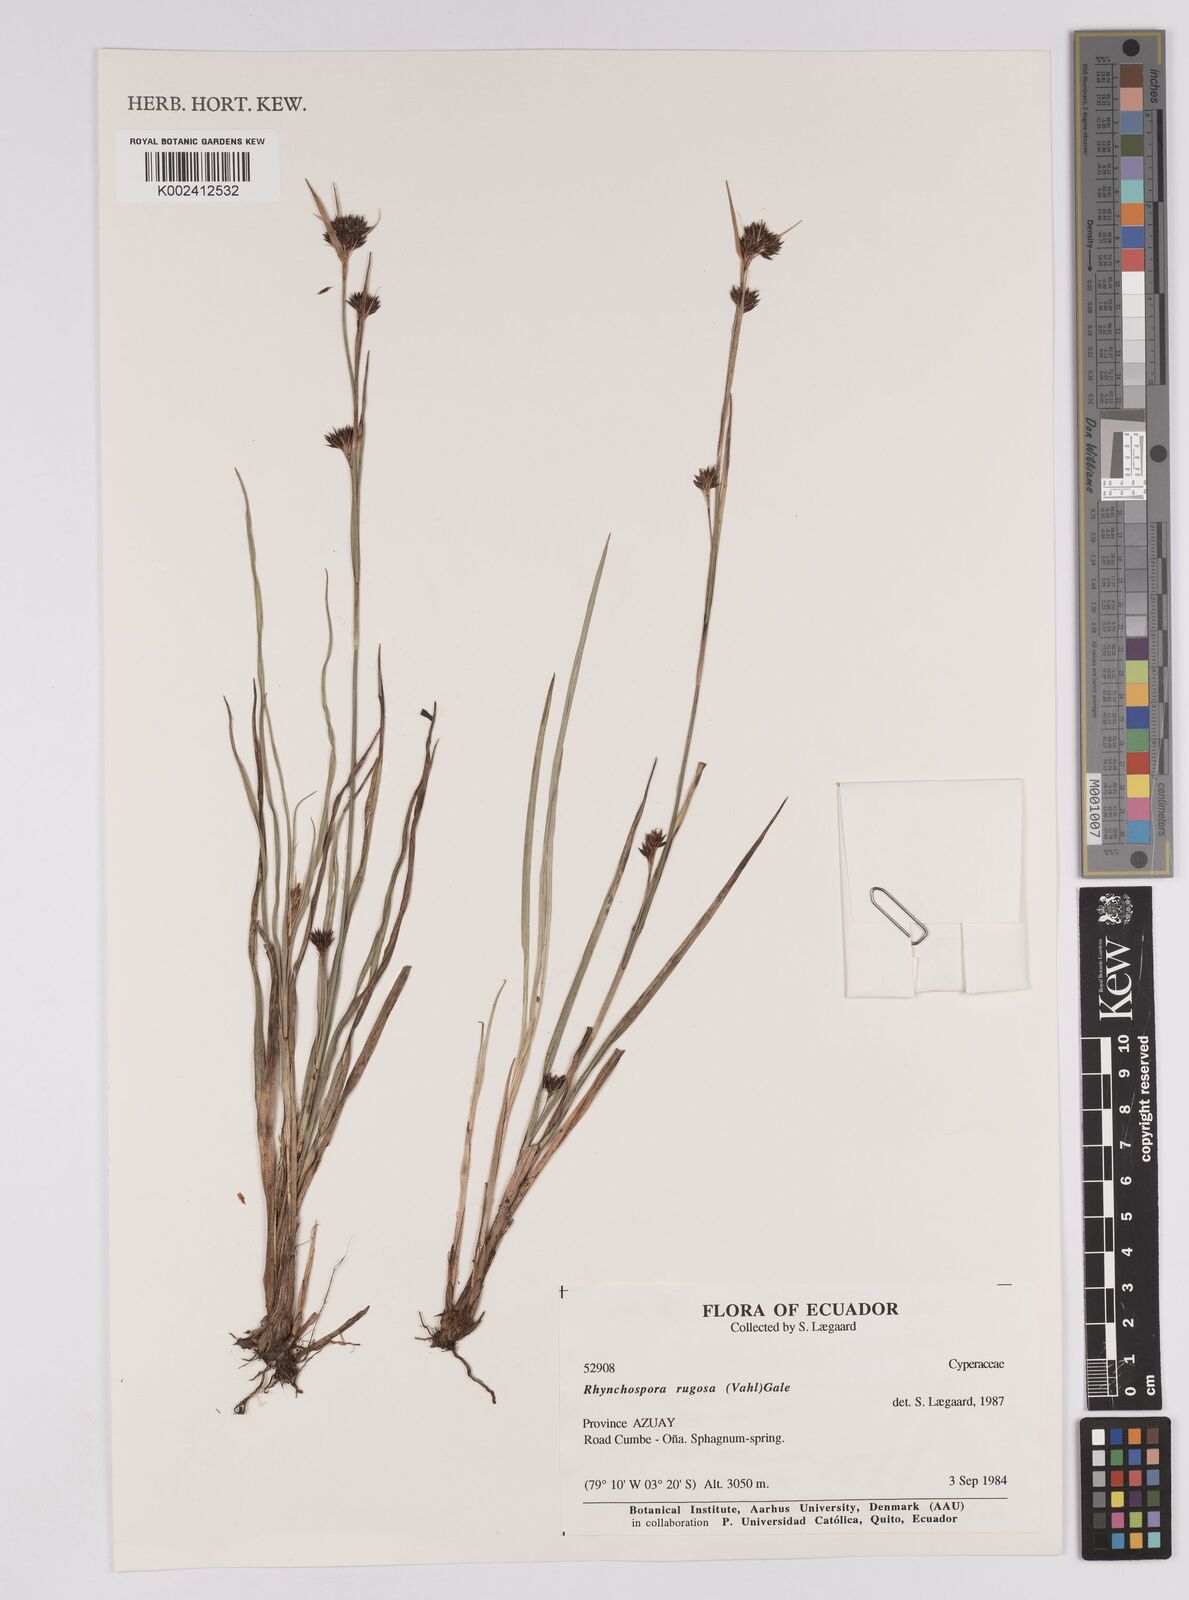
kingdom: Plantae
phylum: Tracheophyta
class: Liliopsida
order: Poales
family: Cyperaceae
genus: Rhynchospora
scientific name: Rhynchospora rugosa
